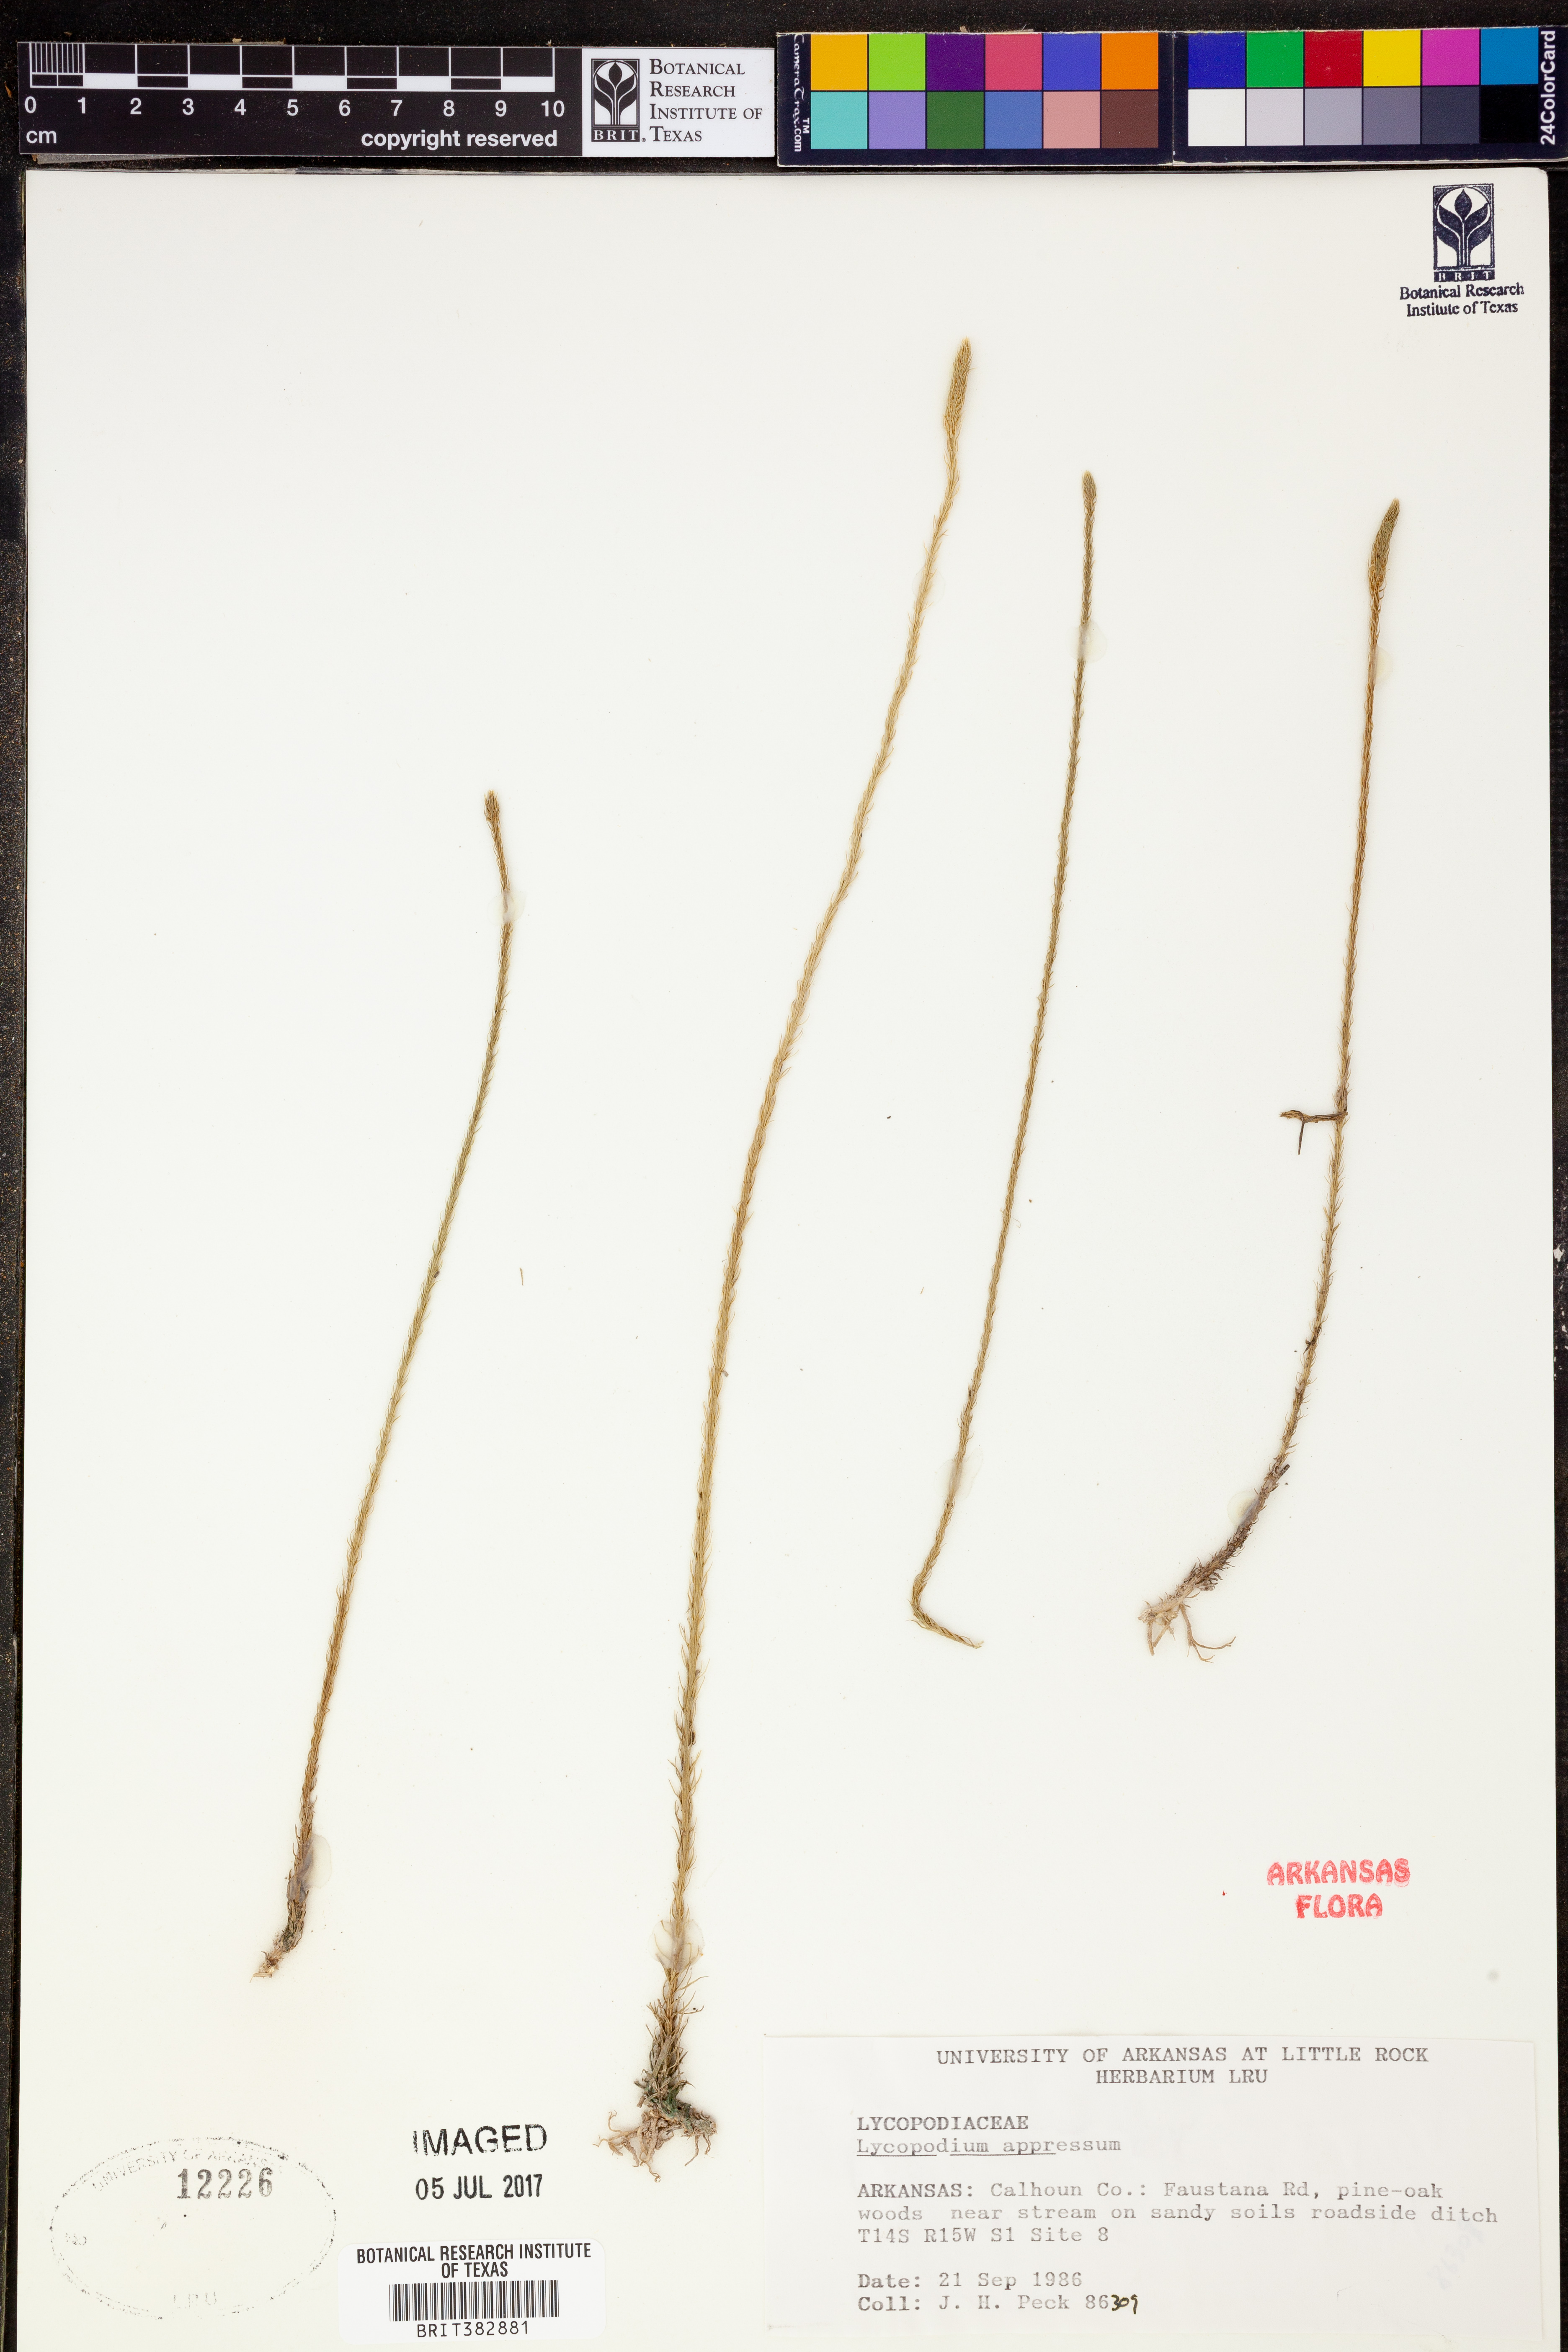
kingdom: Plantae
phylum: Tracheophyta
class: Lycopodiopsida
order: Lycopodiales
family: Lycopodiaceae
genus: Lycopodiella
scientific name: Lycopodiella appressa
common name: Appressed bog clubmoss
